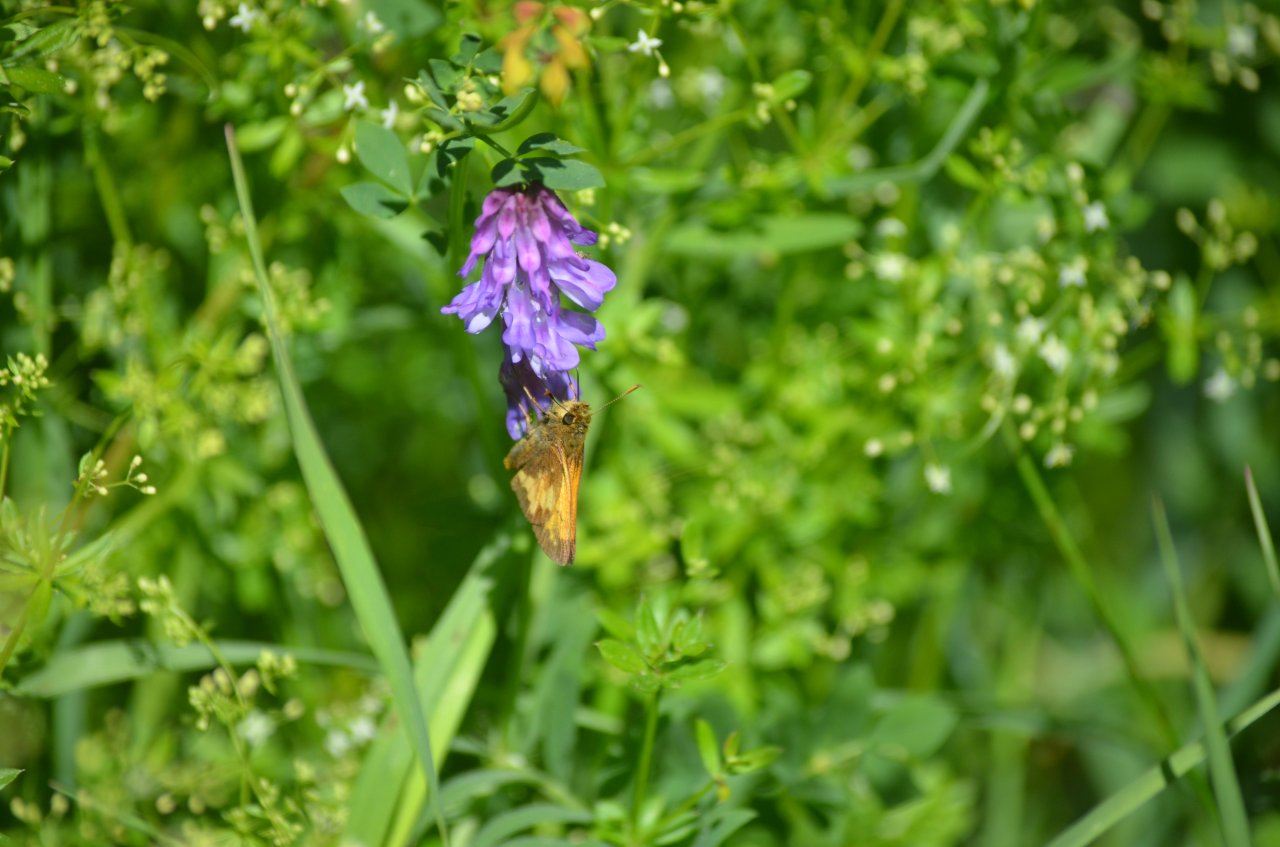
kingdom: Animalia
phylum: Arthropoda
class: Insecta
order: Lepidoptera
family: Hesperiidae
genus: Lon
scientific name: Lon hobomok
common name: Hobomok Skipper
